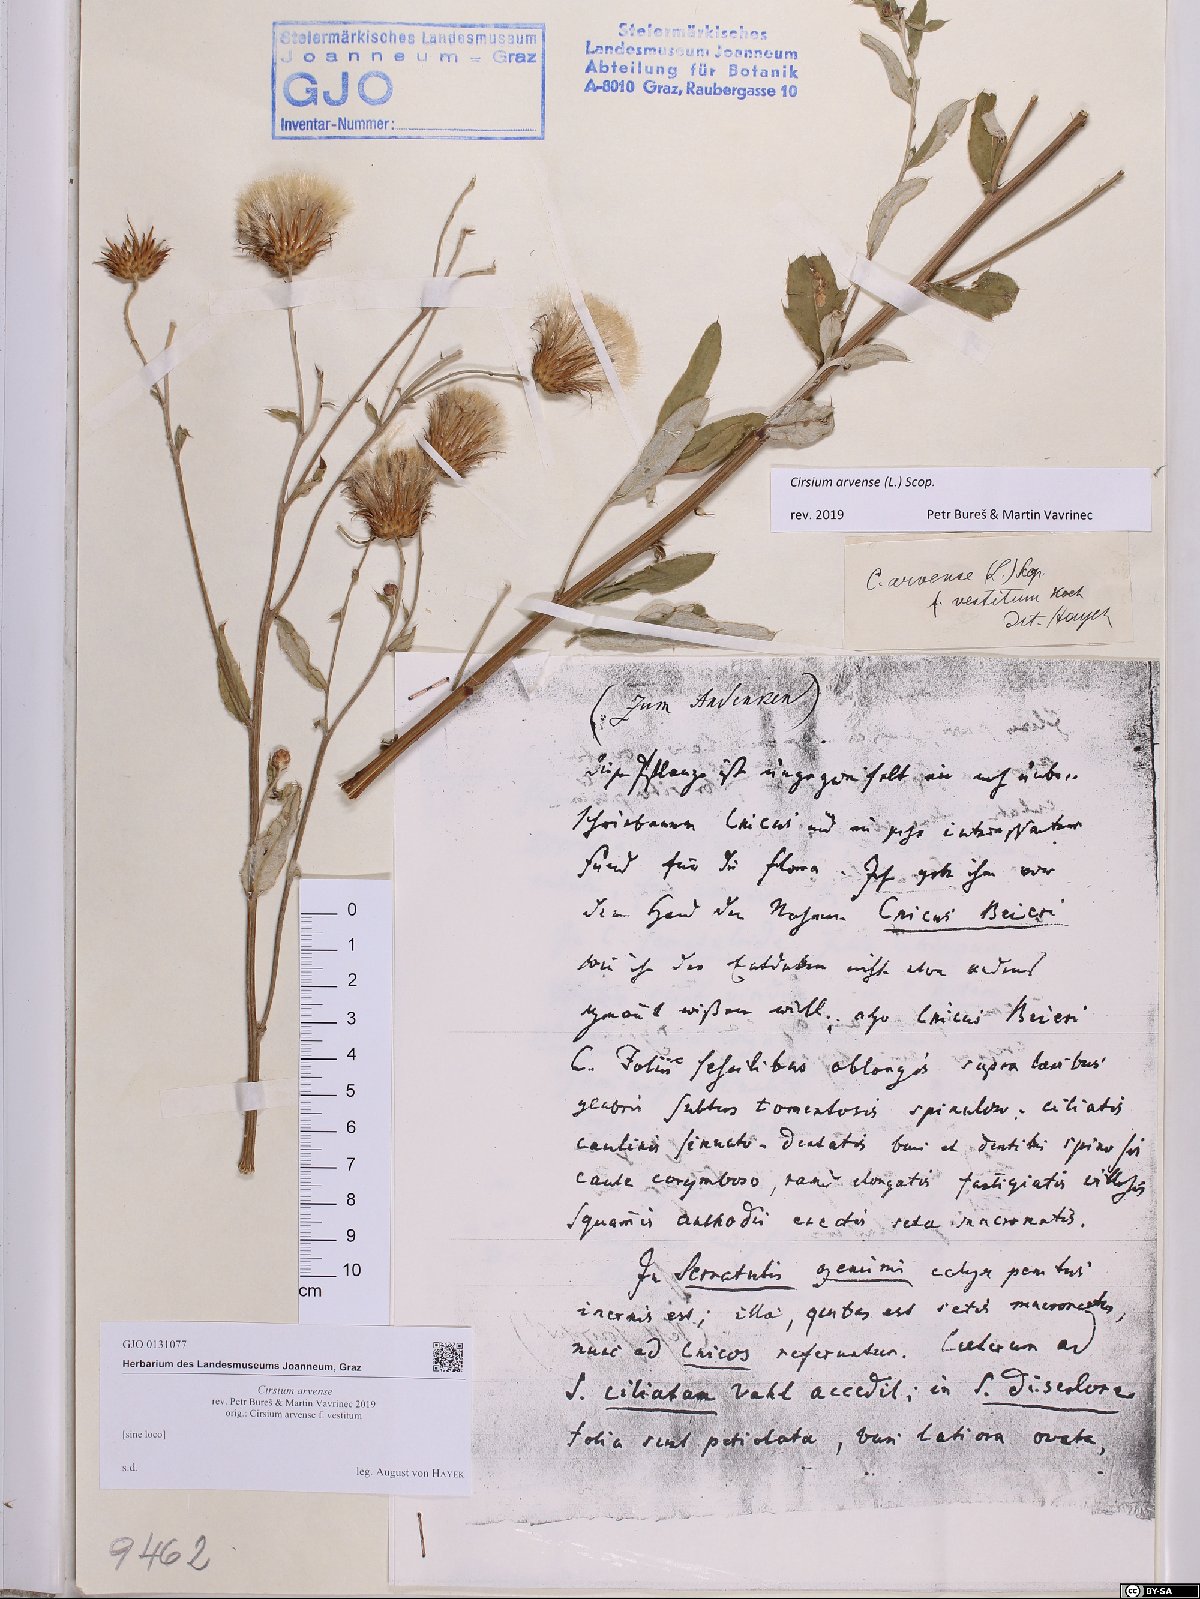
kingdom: Plantae
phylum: Tracheophyta
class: Magnoliopsida
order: Asterales
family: Asteraceae
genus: Cirsium
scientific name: Cirsium arvense
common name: Creeping thistle
